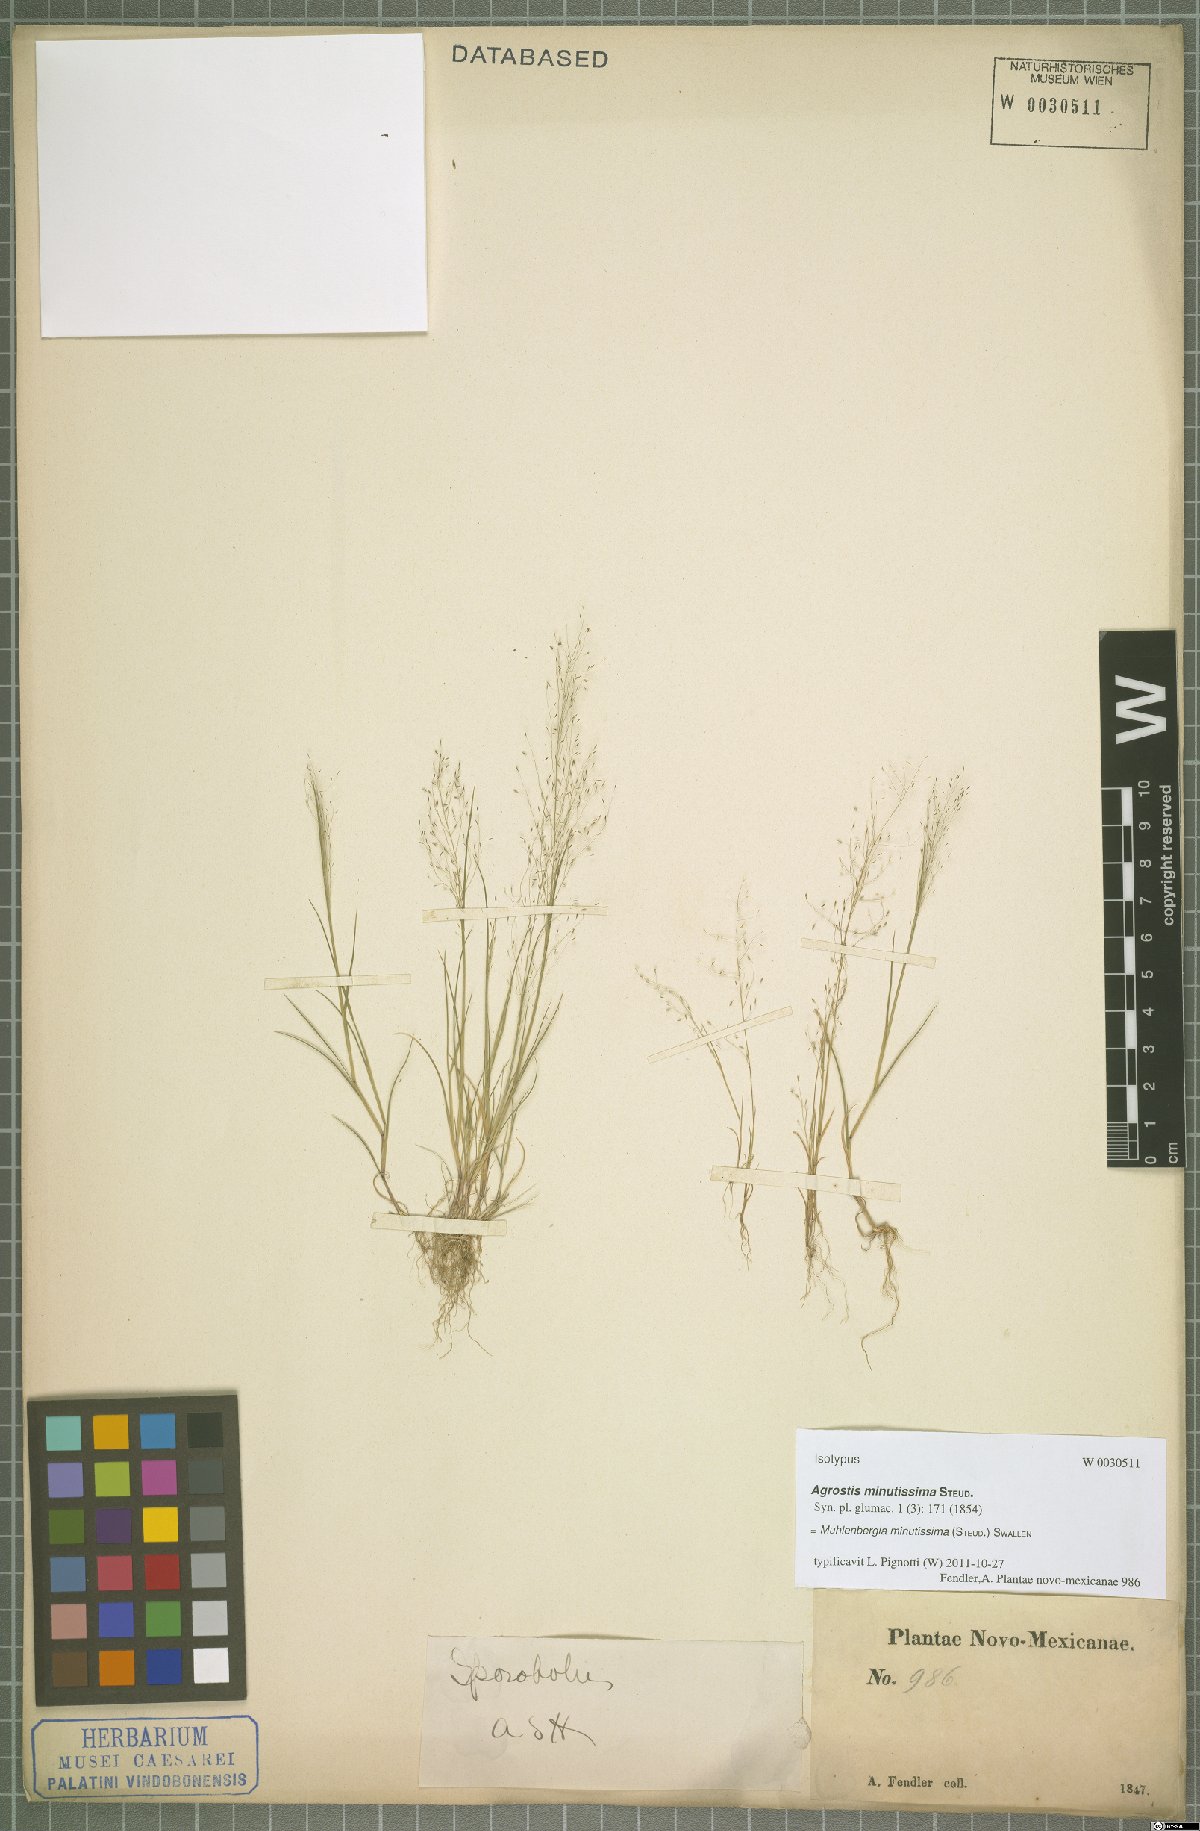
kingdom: Plantae
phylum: Tracheophyta
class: Liliopsida
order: Poales
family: Poaceae
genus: Muhlenbergia
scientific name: Muhlenbergia minutissima
